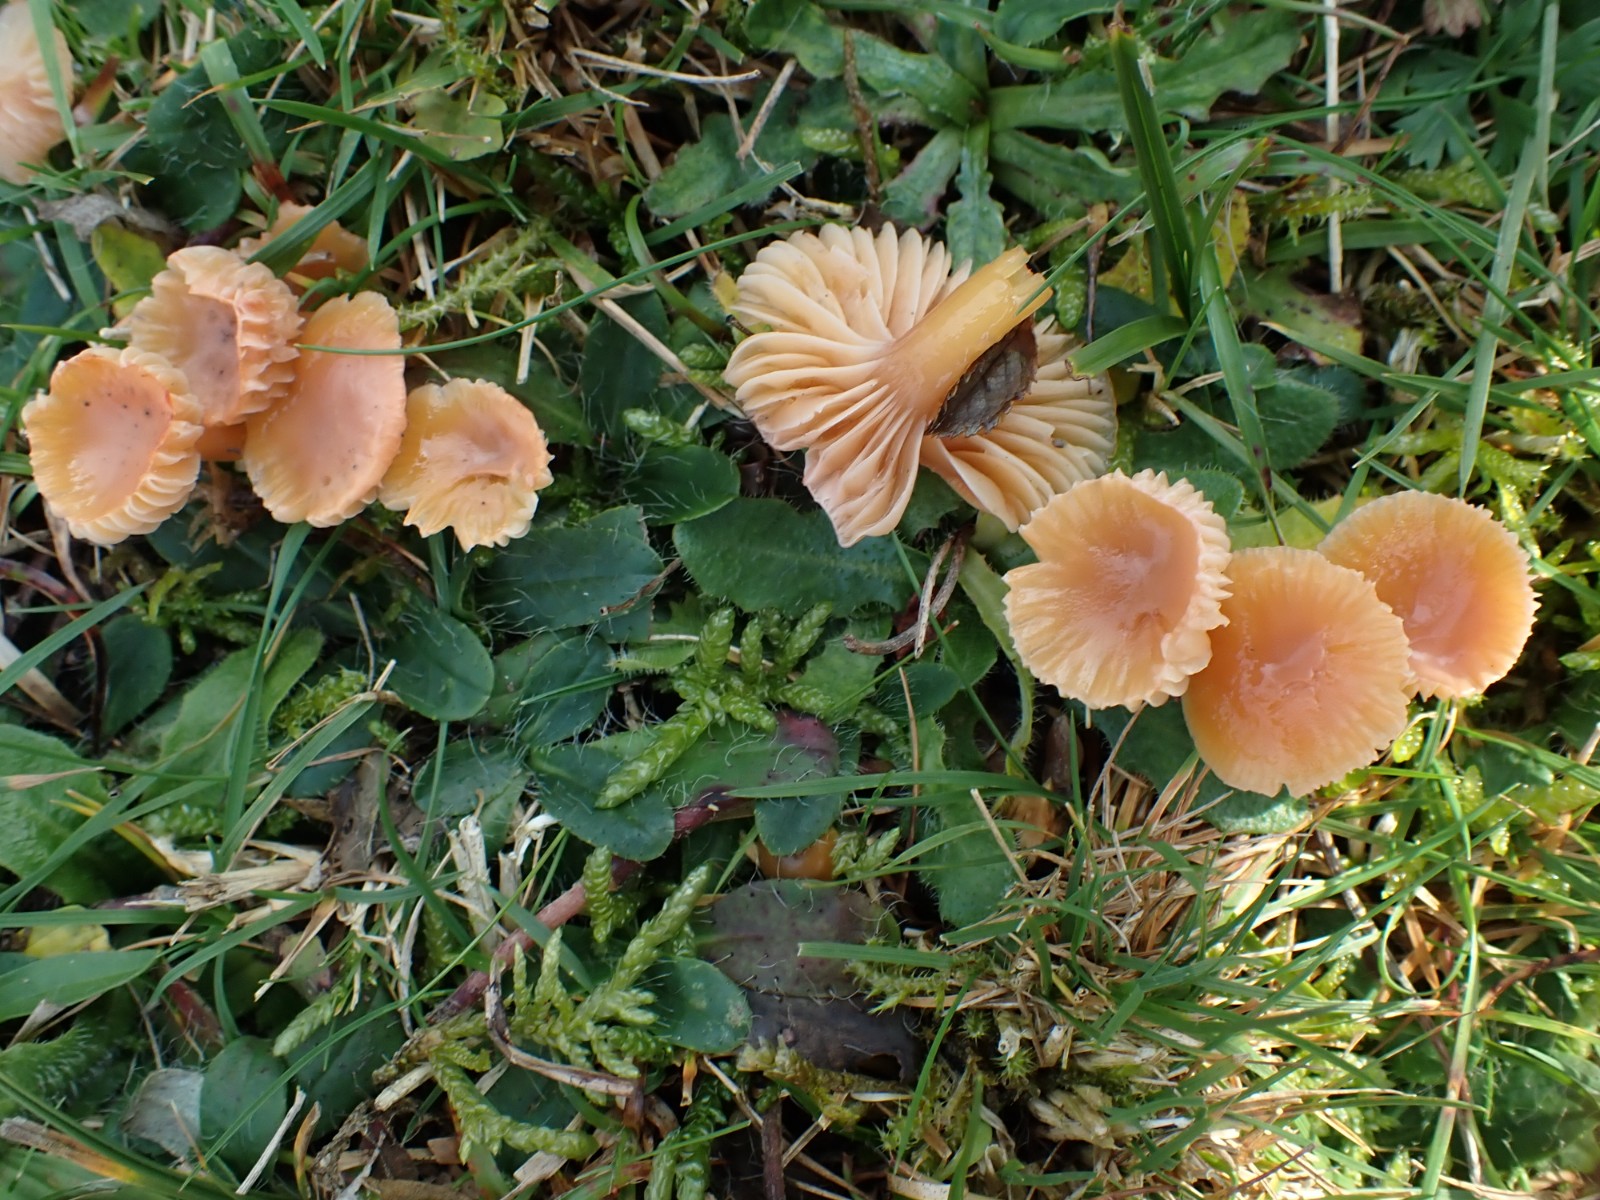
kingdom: Fungi
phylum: Basidiomycota
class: Agaricomycetes
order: Agaricales
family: Hygrophoraceae
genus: Gliophorus
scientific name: Gliophorus laetus
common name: brusk-vokshat
